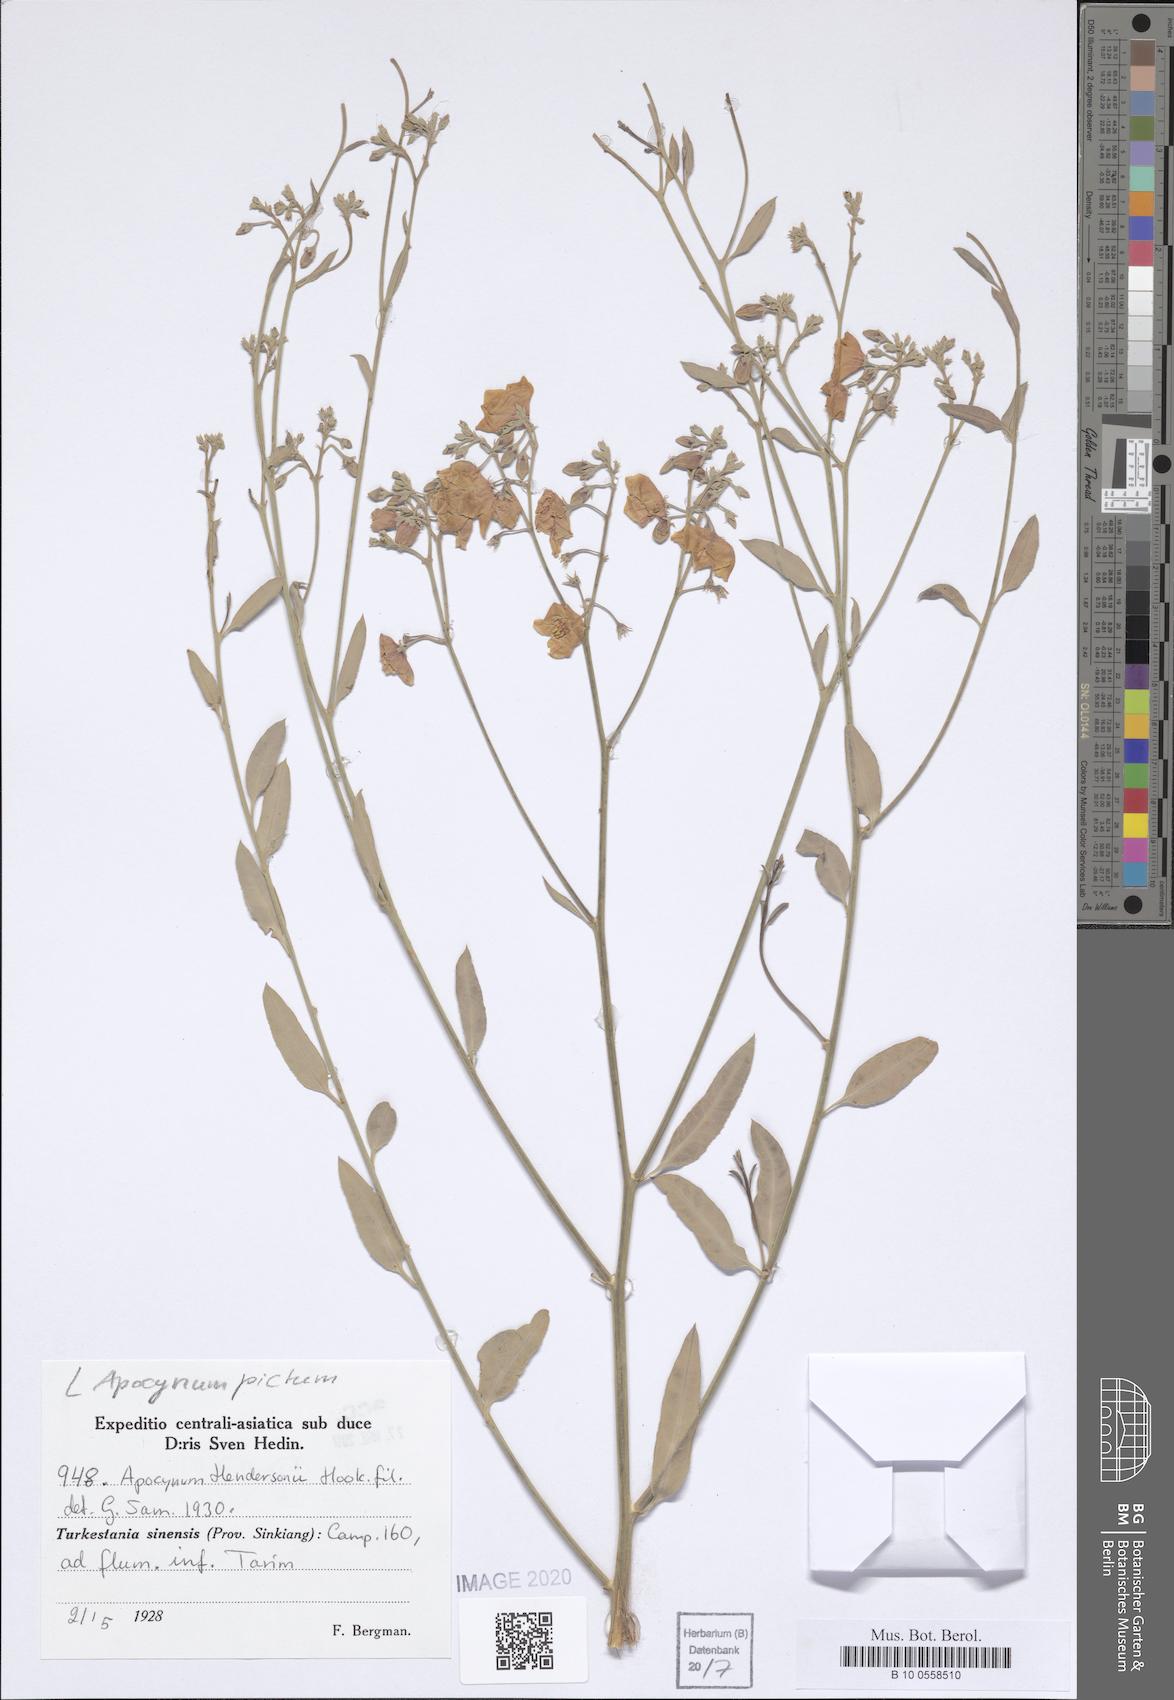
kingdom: Plantae
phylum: Tracheophyta
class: Magnoliopsida
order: Gentianales
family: Apocynaceae
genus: Poacynum
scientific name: Poacynum pictum
